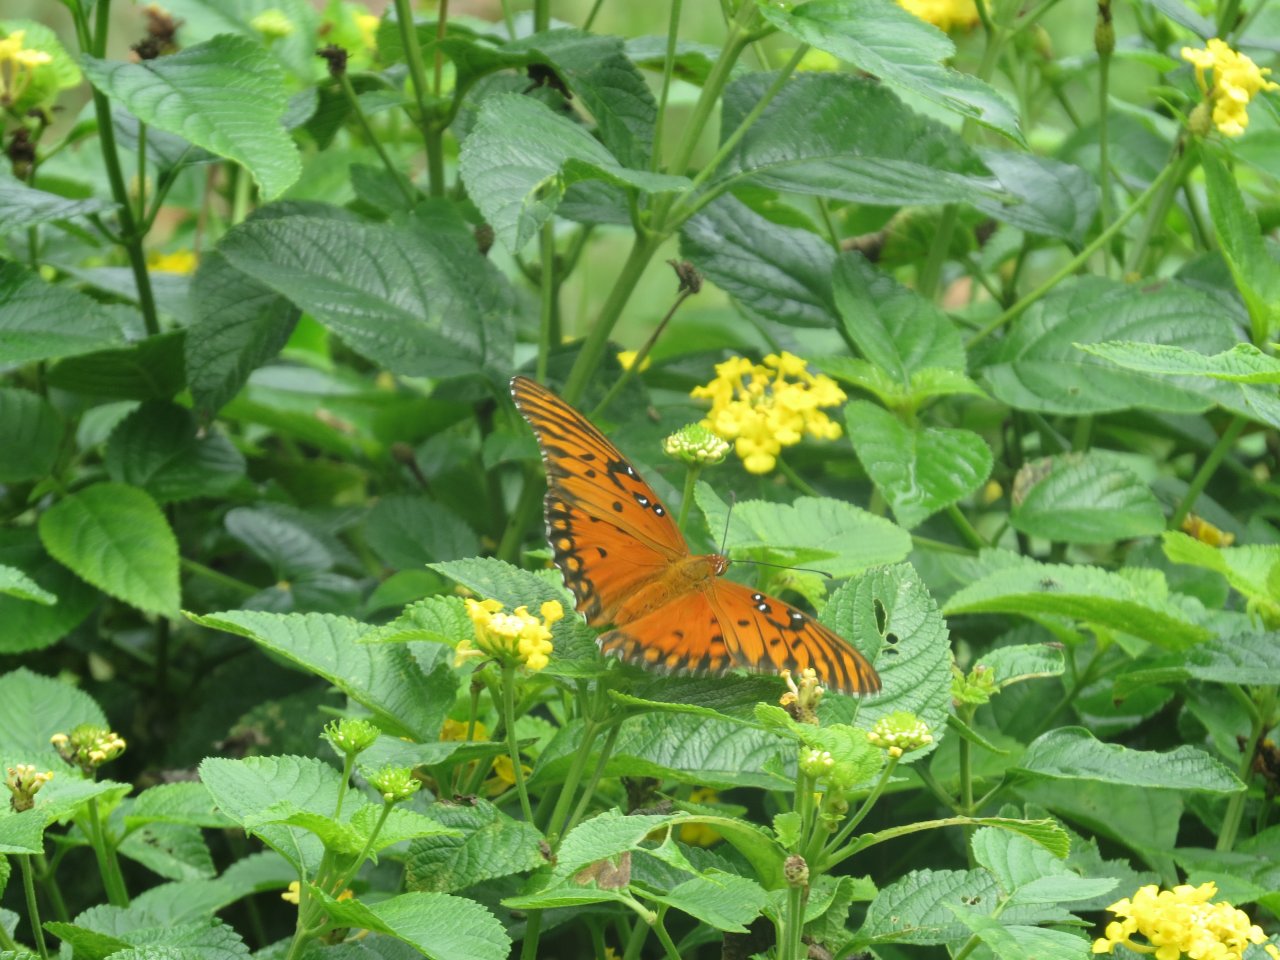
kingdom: Animalia
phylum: Arthropoda
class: Insecta
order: Lepidoptera
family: Nymphalidae
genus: Dione
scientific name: Dione vanillae
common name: Gulf Fritillary
